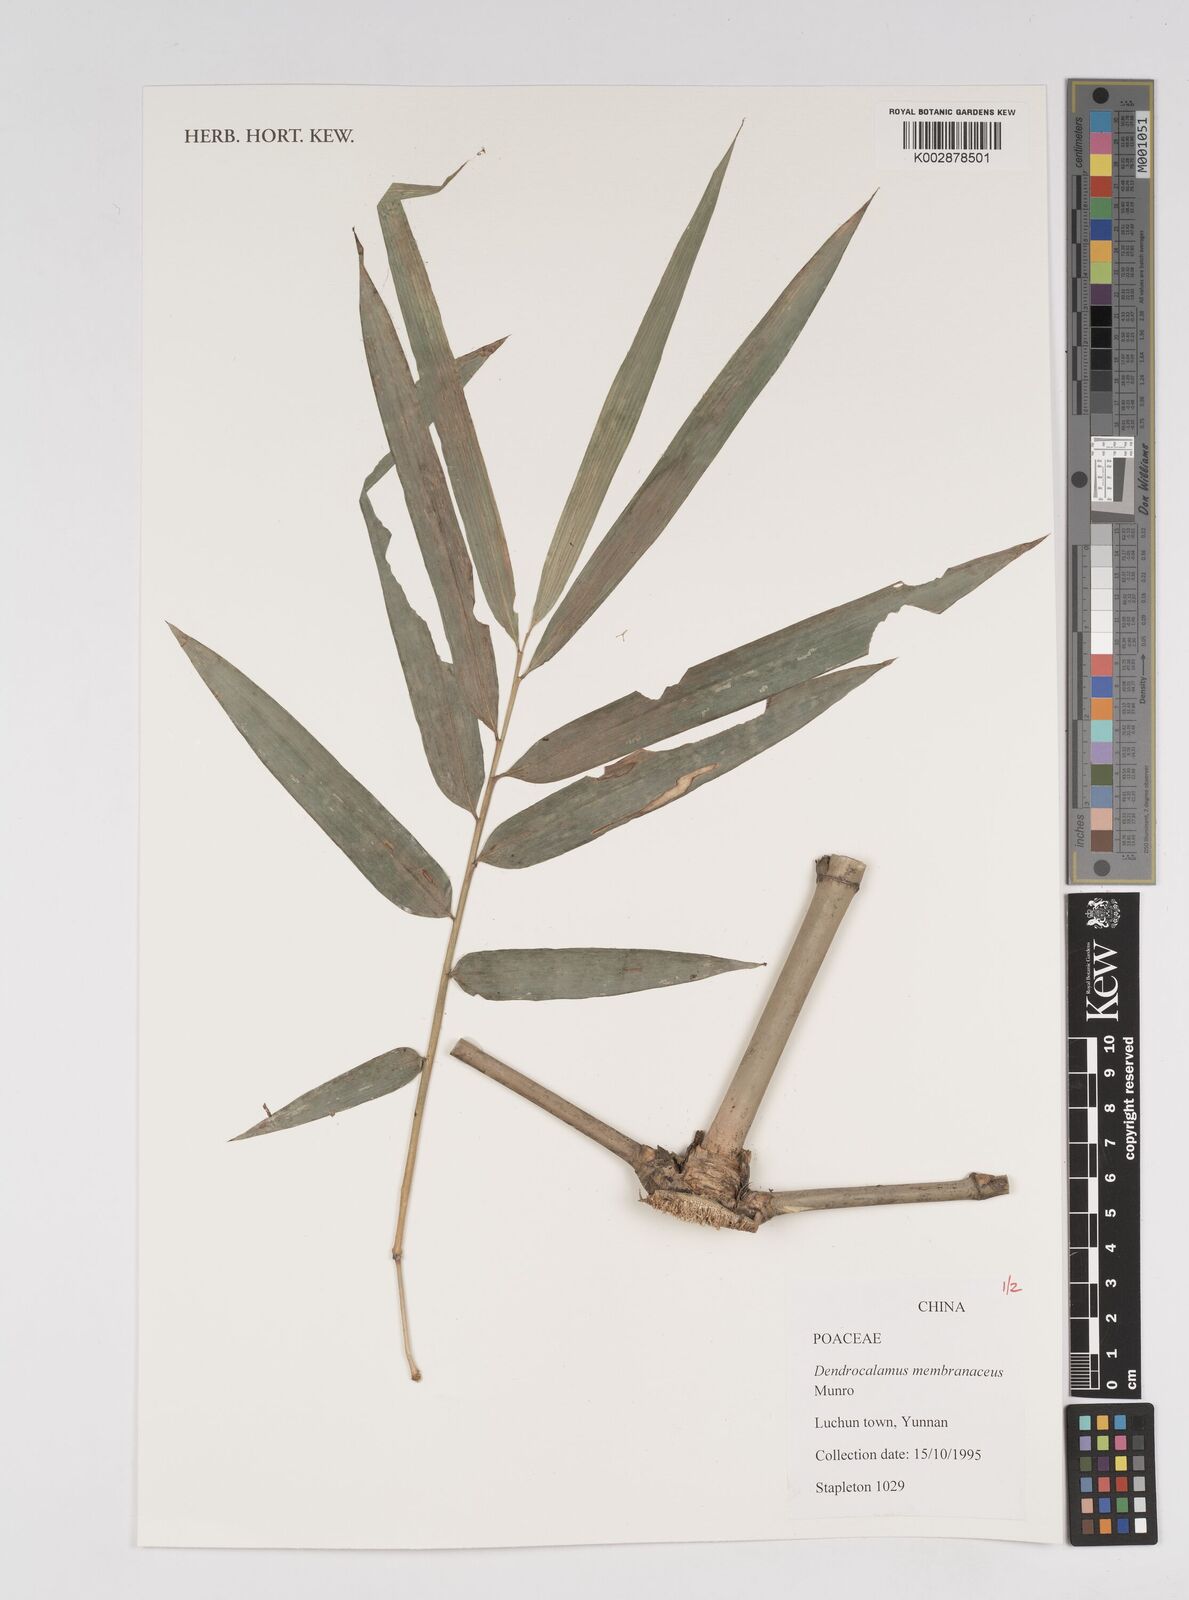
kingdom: Plantae
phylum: Tracheophyta
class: Liliopsida
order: Poales
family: Poaceae
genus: Dendrocalamus
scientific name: Dendrocalamus membranaceus
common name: White bamboo
